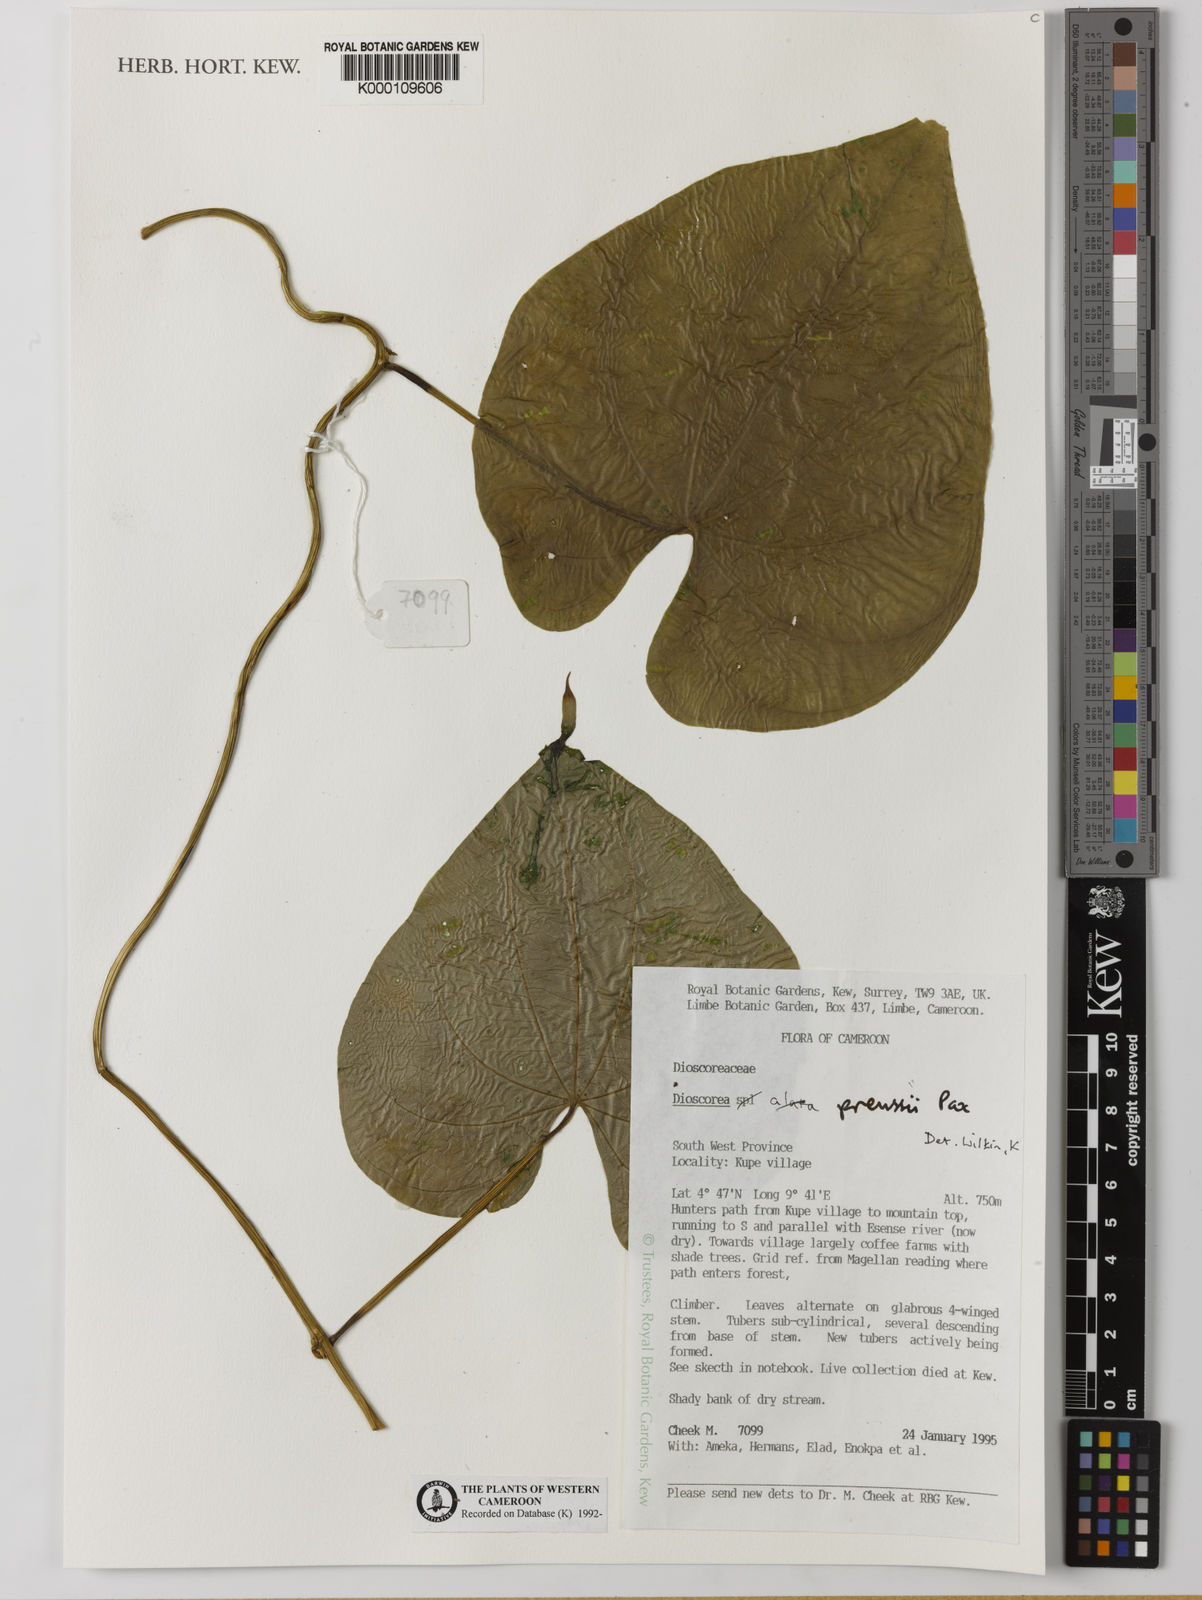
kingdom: Plantae
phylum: Tracheophyta
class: Liliopsida
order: Dioscoreales
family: Dioscoreaceae
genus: Dioscorea
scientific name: Dioscorea preussii
